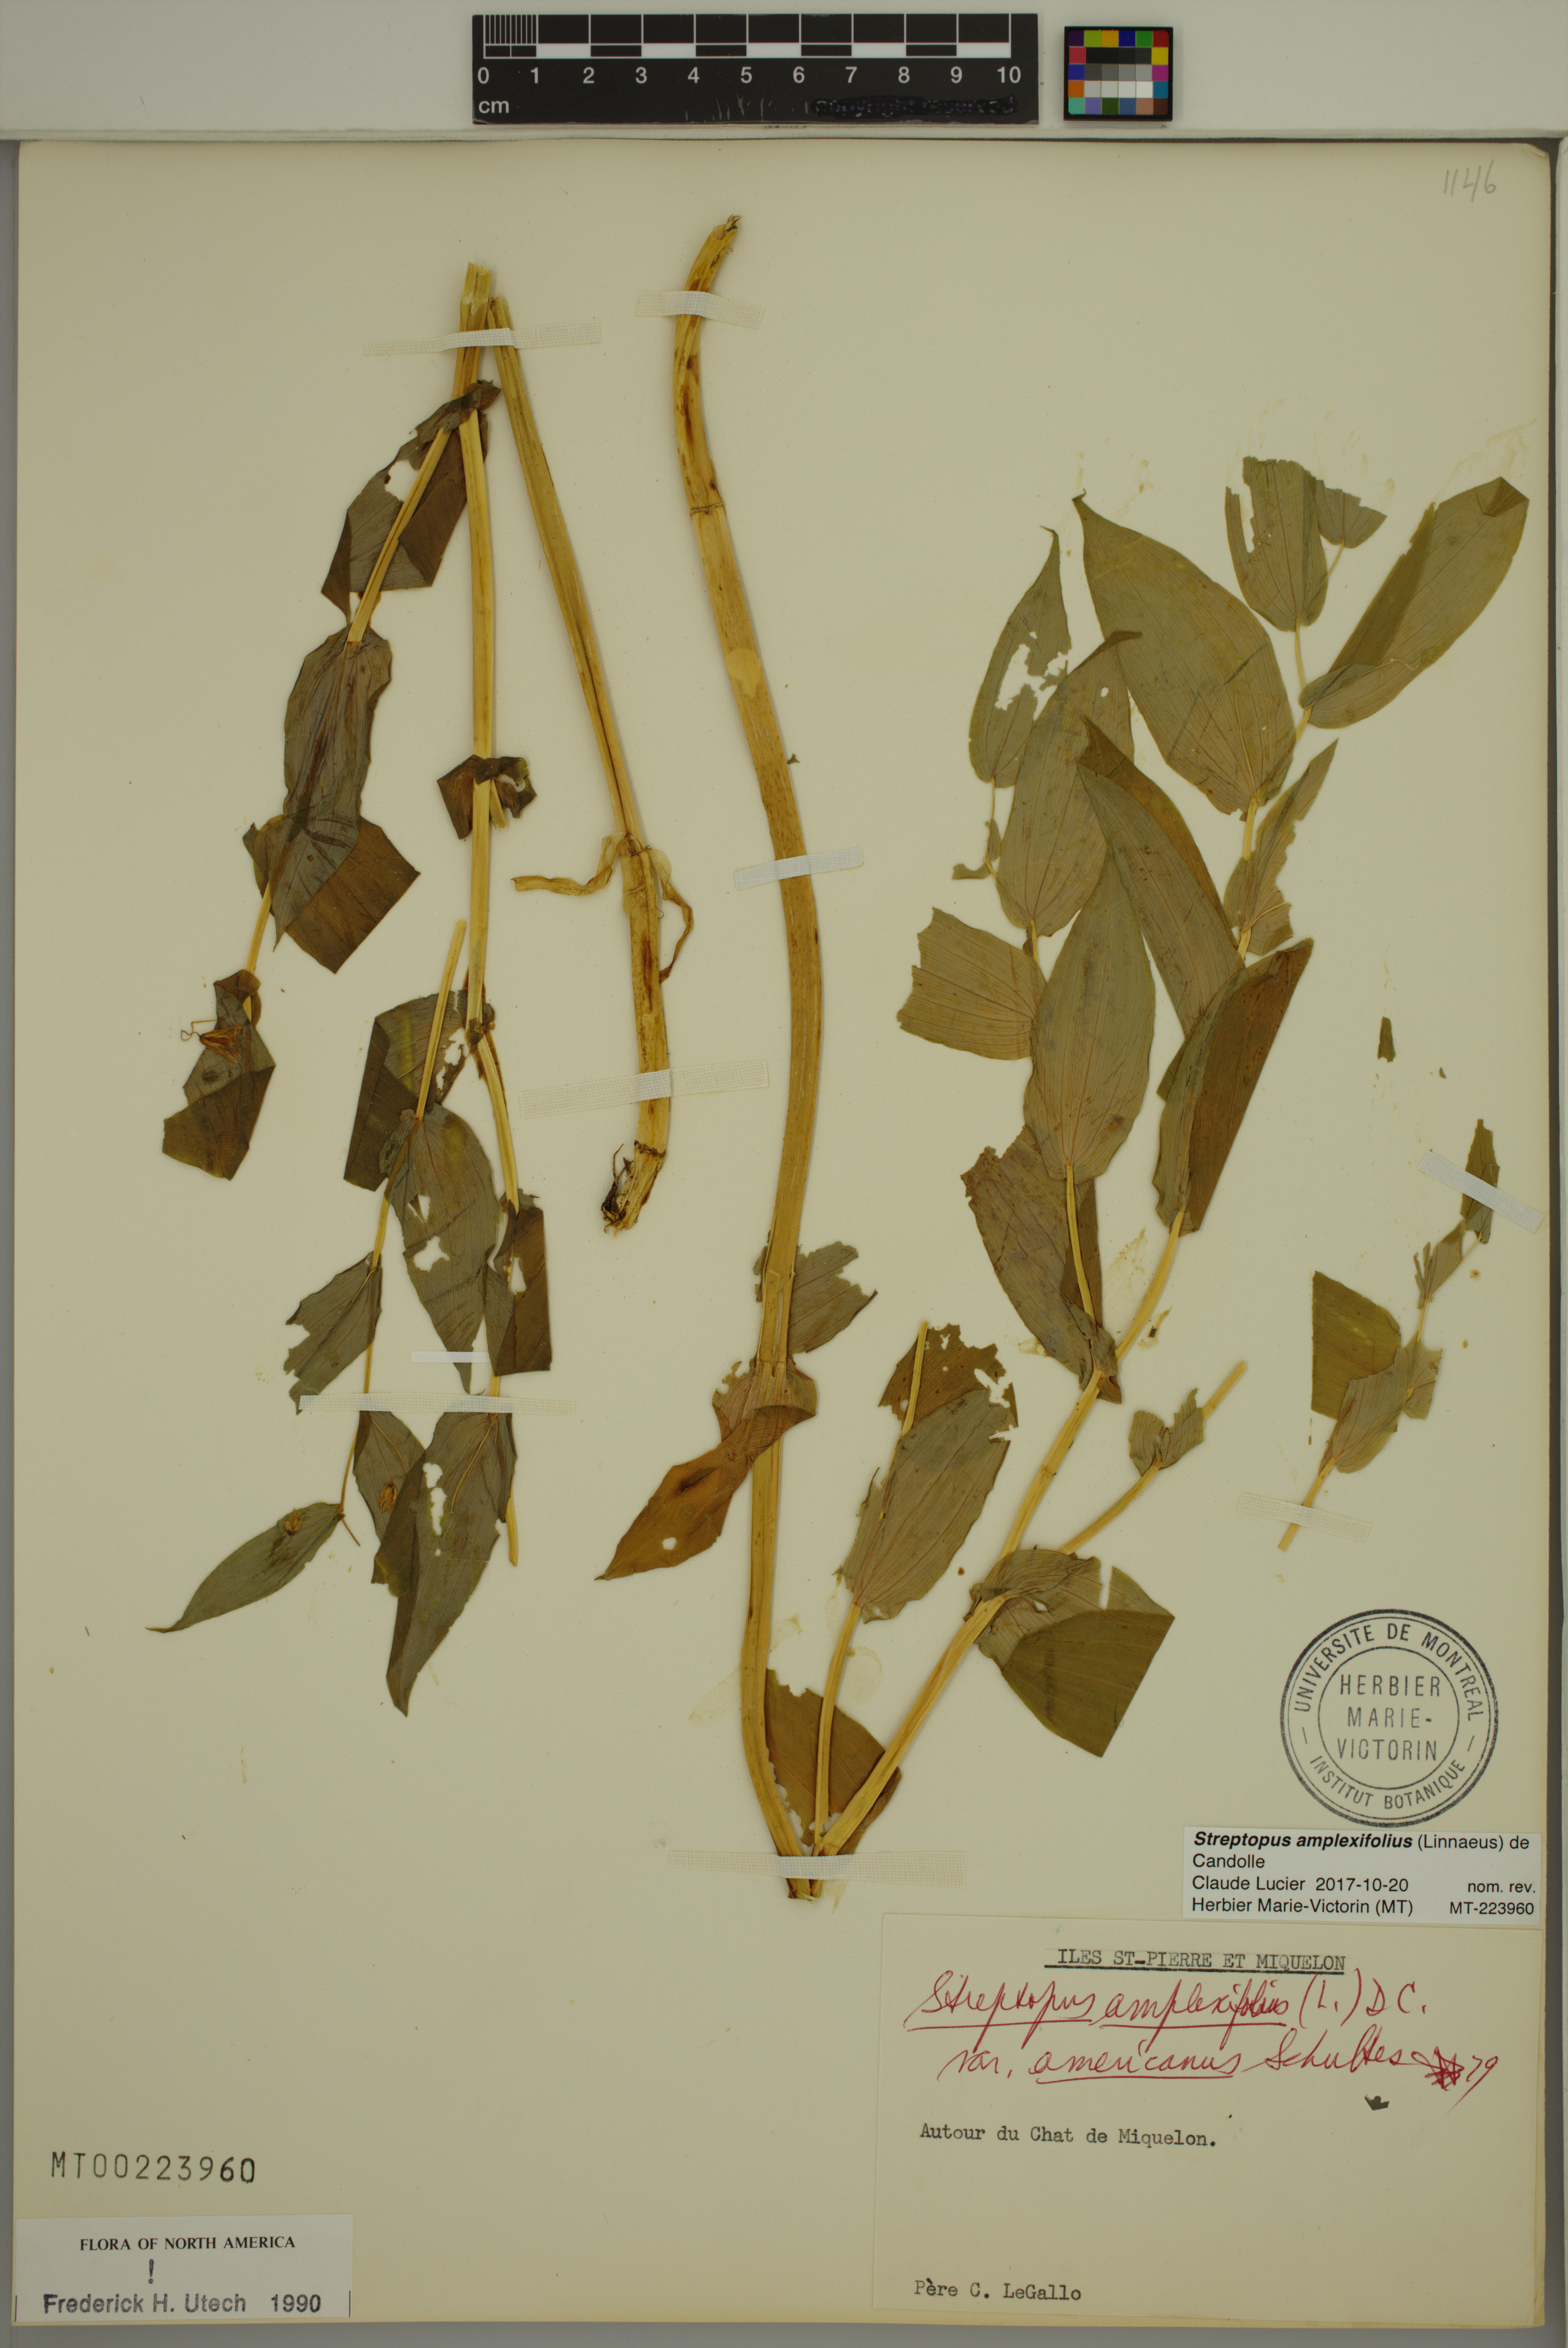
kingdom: Plantae
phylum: Tracheophyta
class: Liliopsida
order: Liliales
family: Liliaceae
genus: Streptopus
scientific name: Streptopus amplexifolius
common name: Clasp twisted stalk
